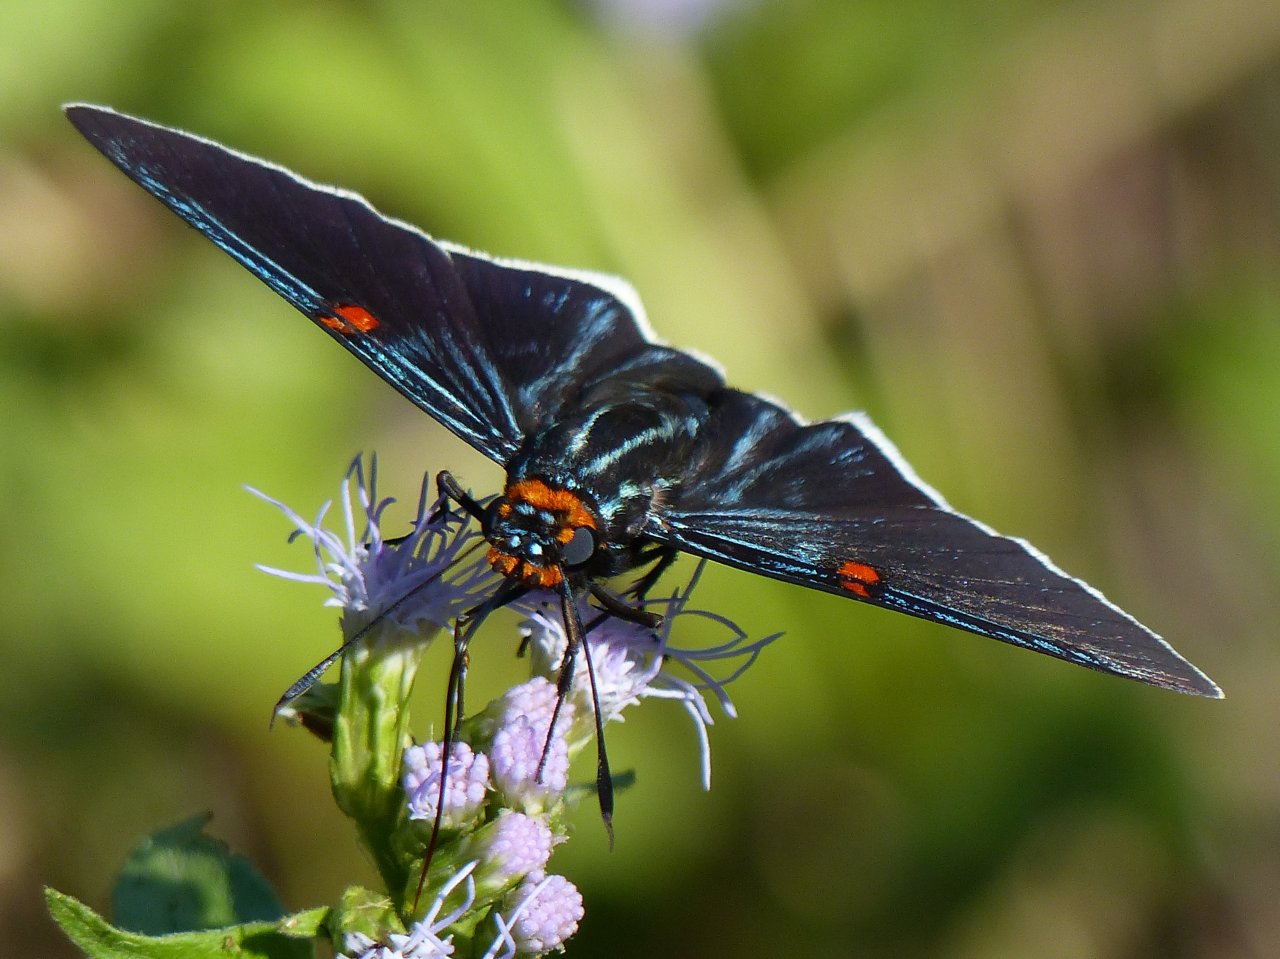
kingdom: Animalia
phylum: Arthropoda
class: Insecta
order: Lepidoptera
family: Hesperiidae
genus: Phocides
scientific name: Phocides polybius
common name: Guava Skipper
